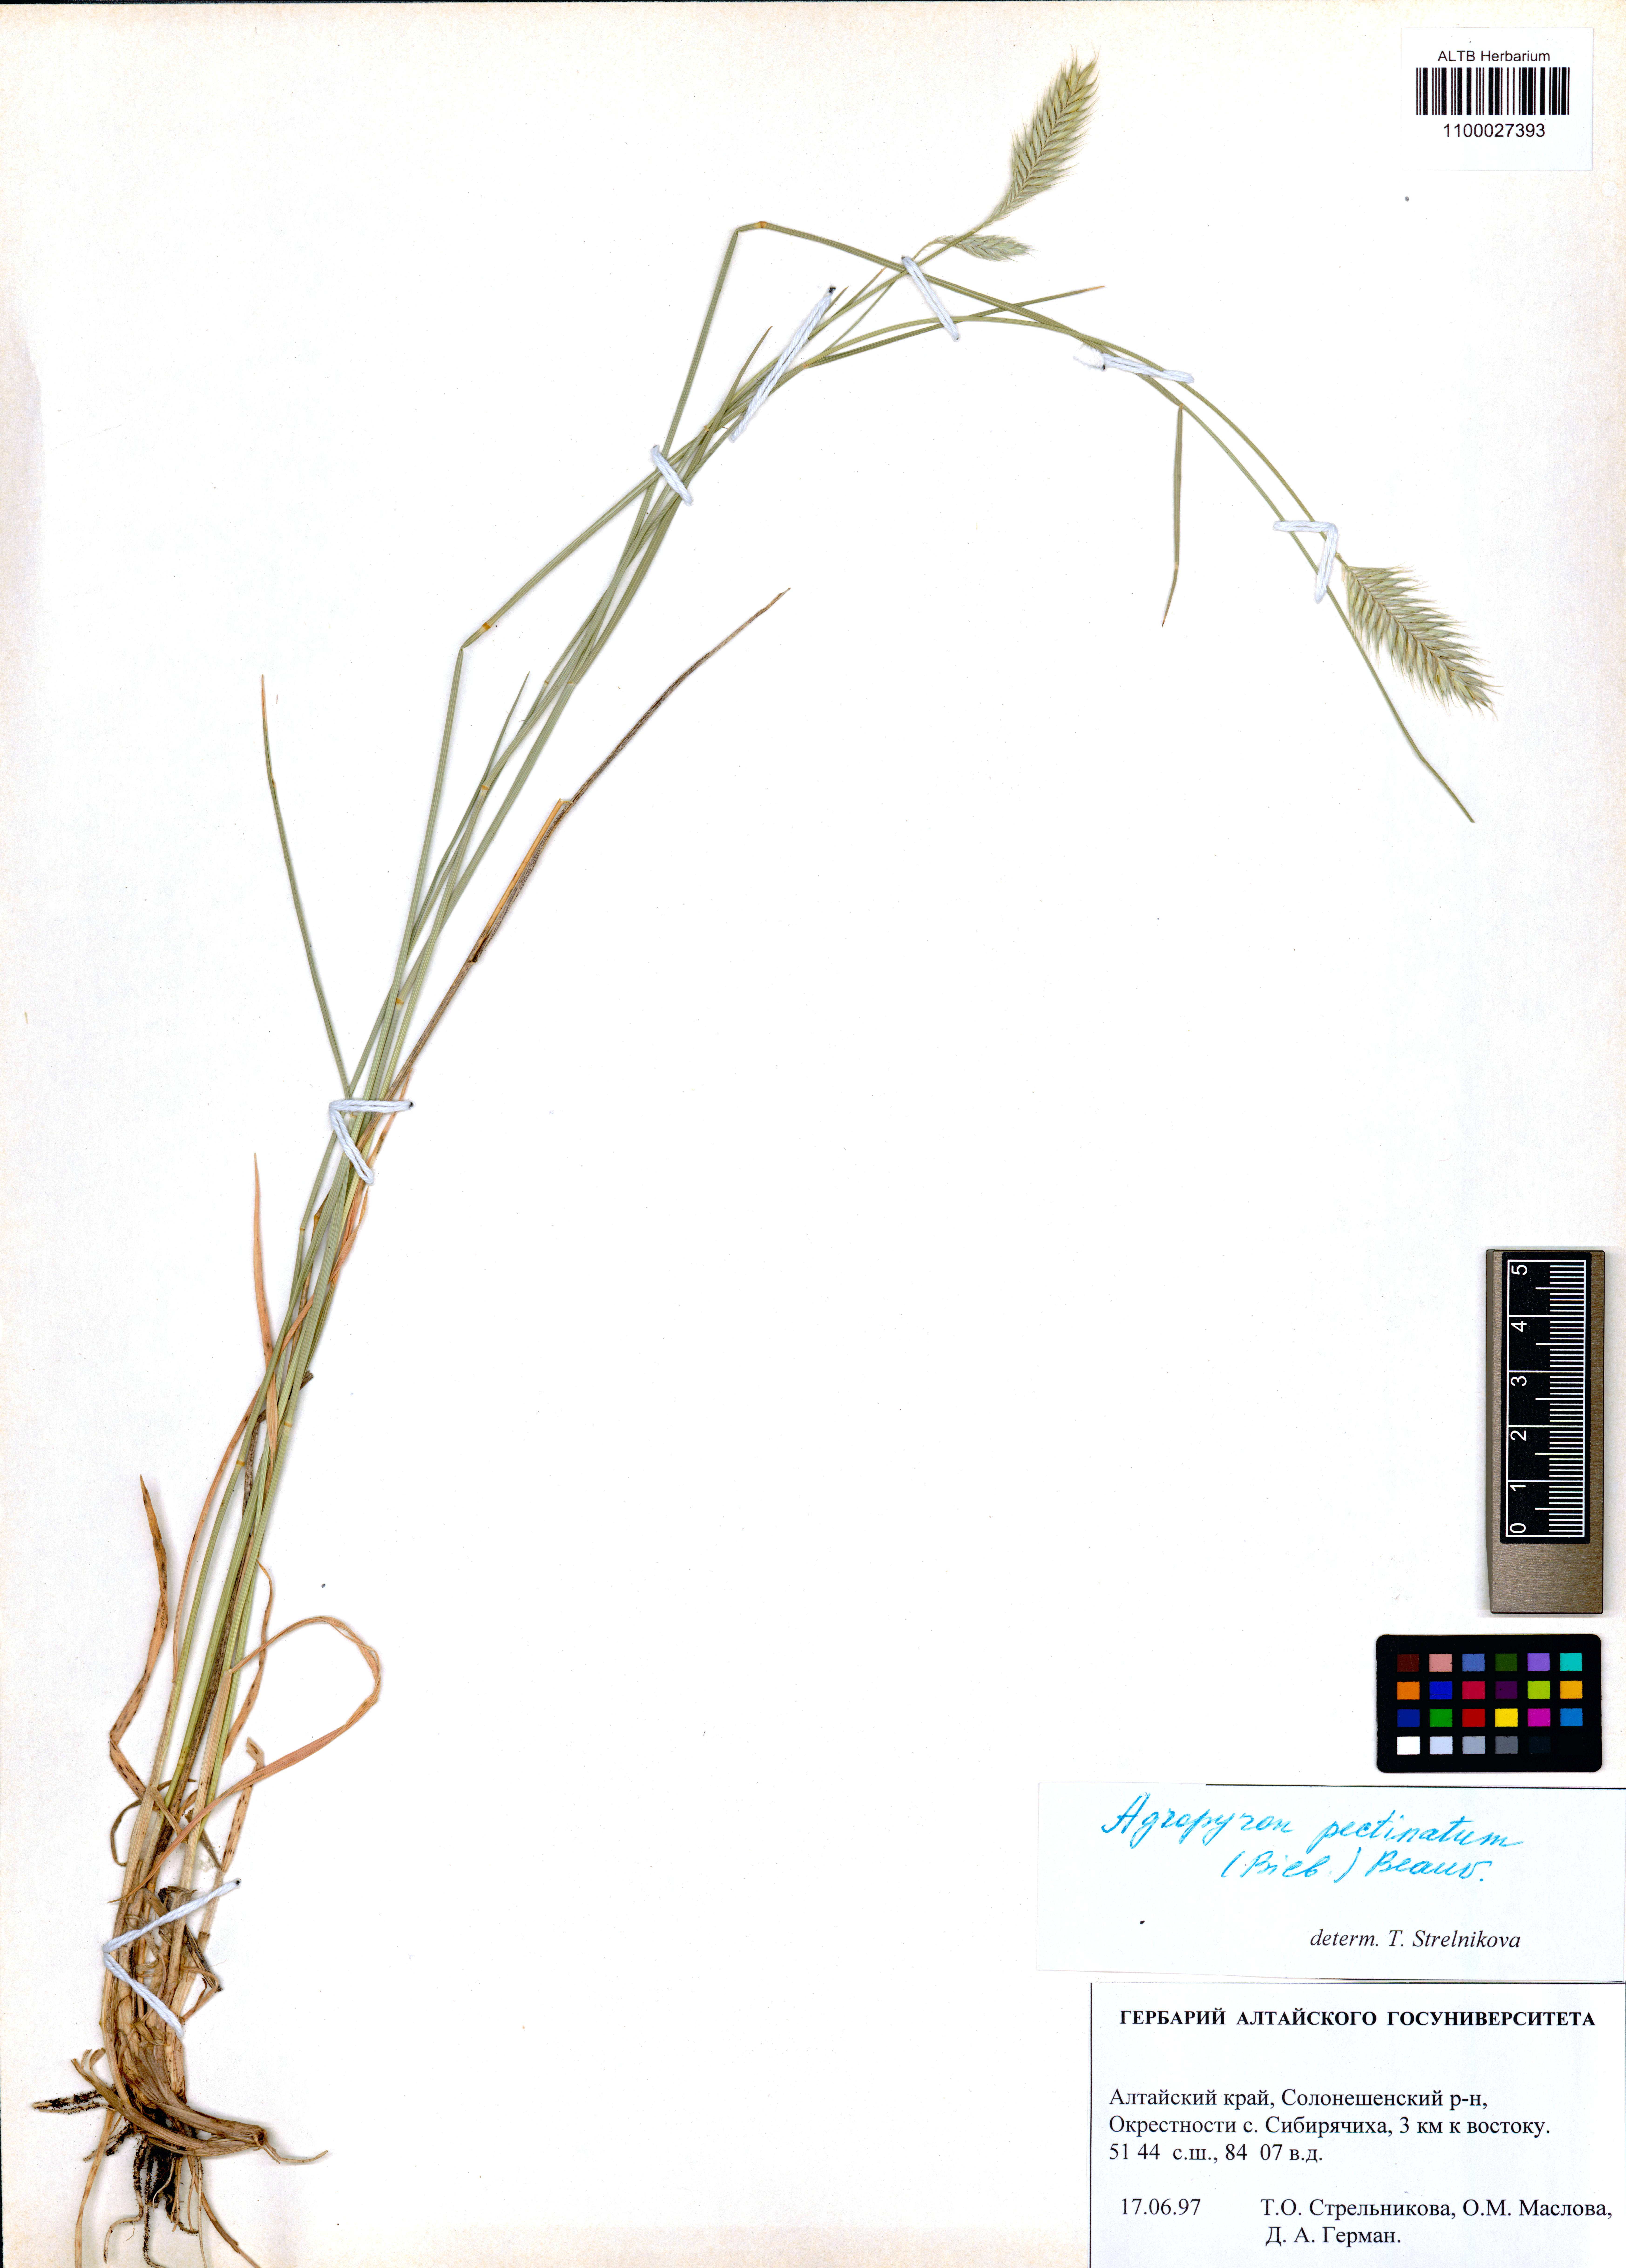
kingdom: Plantae
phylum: Tracheophyta
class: Liliopsida
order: Poales
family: Poaceae
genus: Agropyron
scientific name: Agropyron cristatum
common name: Crested wheatgrass
